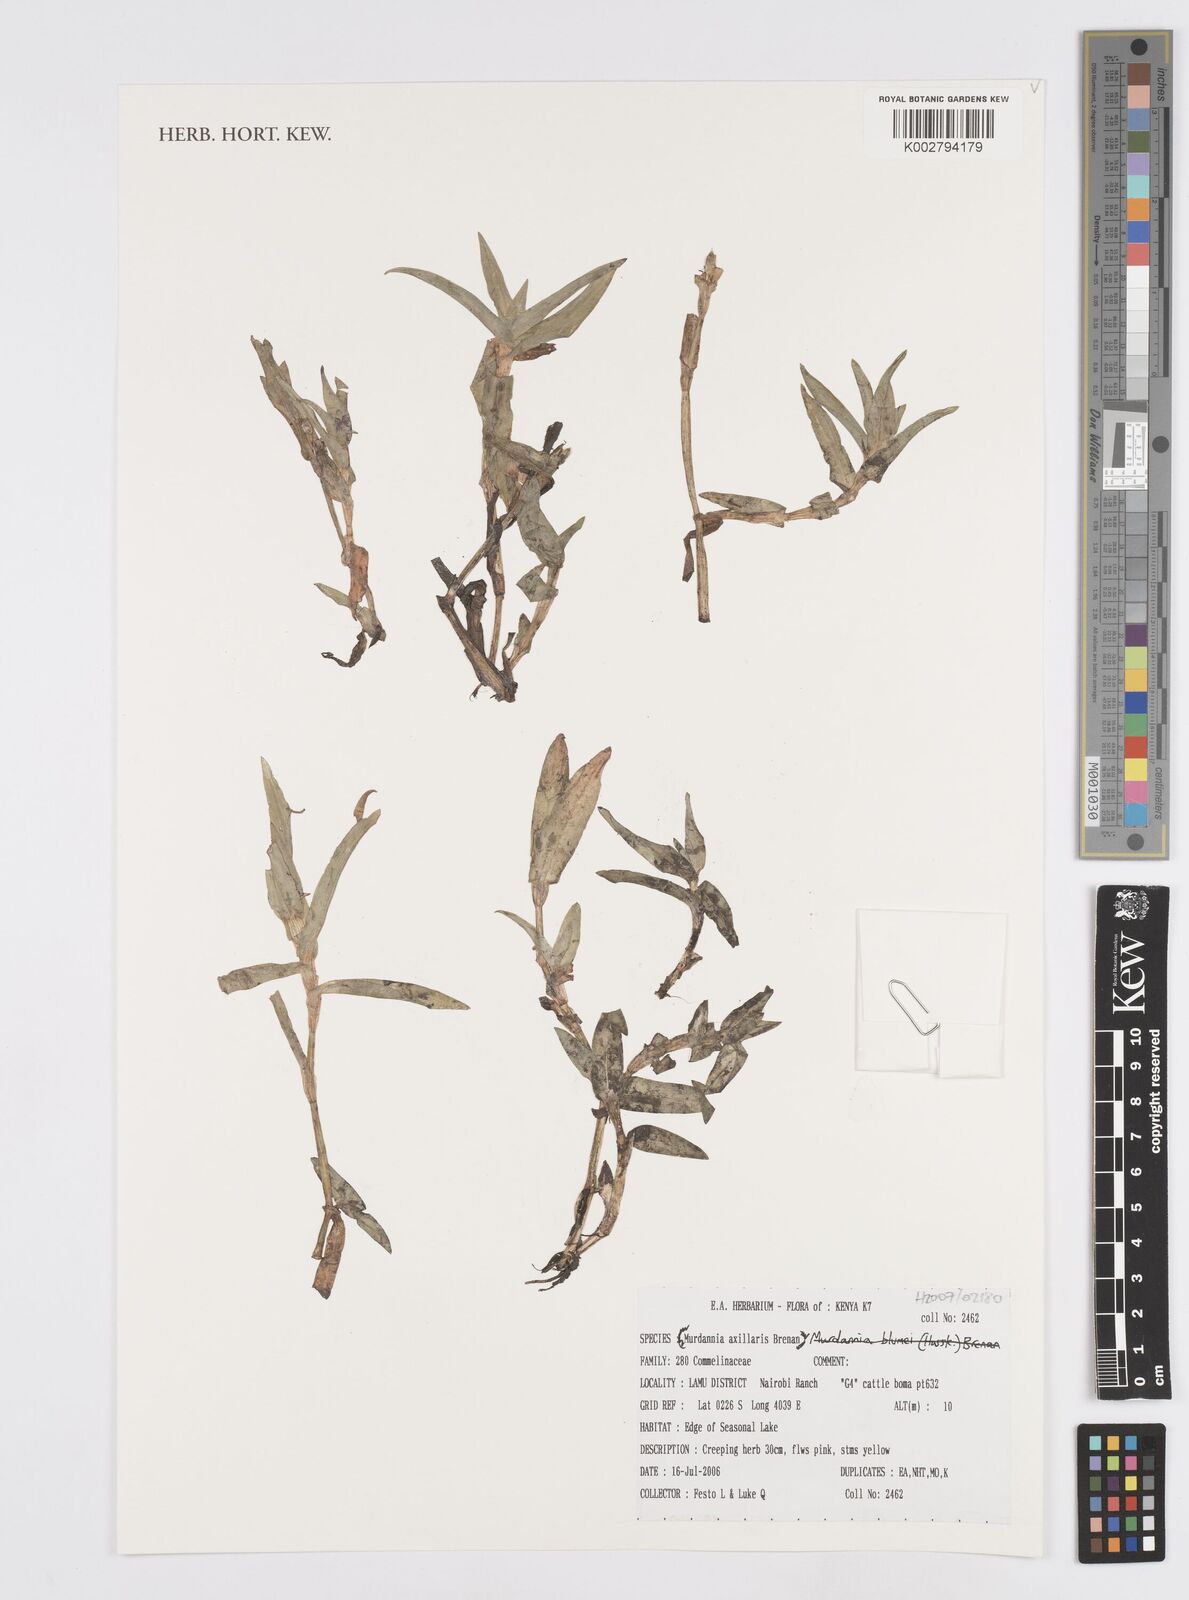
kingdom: Plantae
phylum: Tracheophyta
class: Liliopsida
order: Commelinales
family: Commelinaceae
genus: Murdannia
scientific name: Murdannia axillaris
